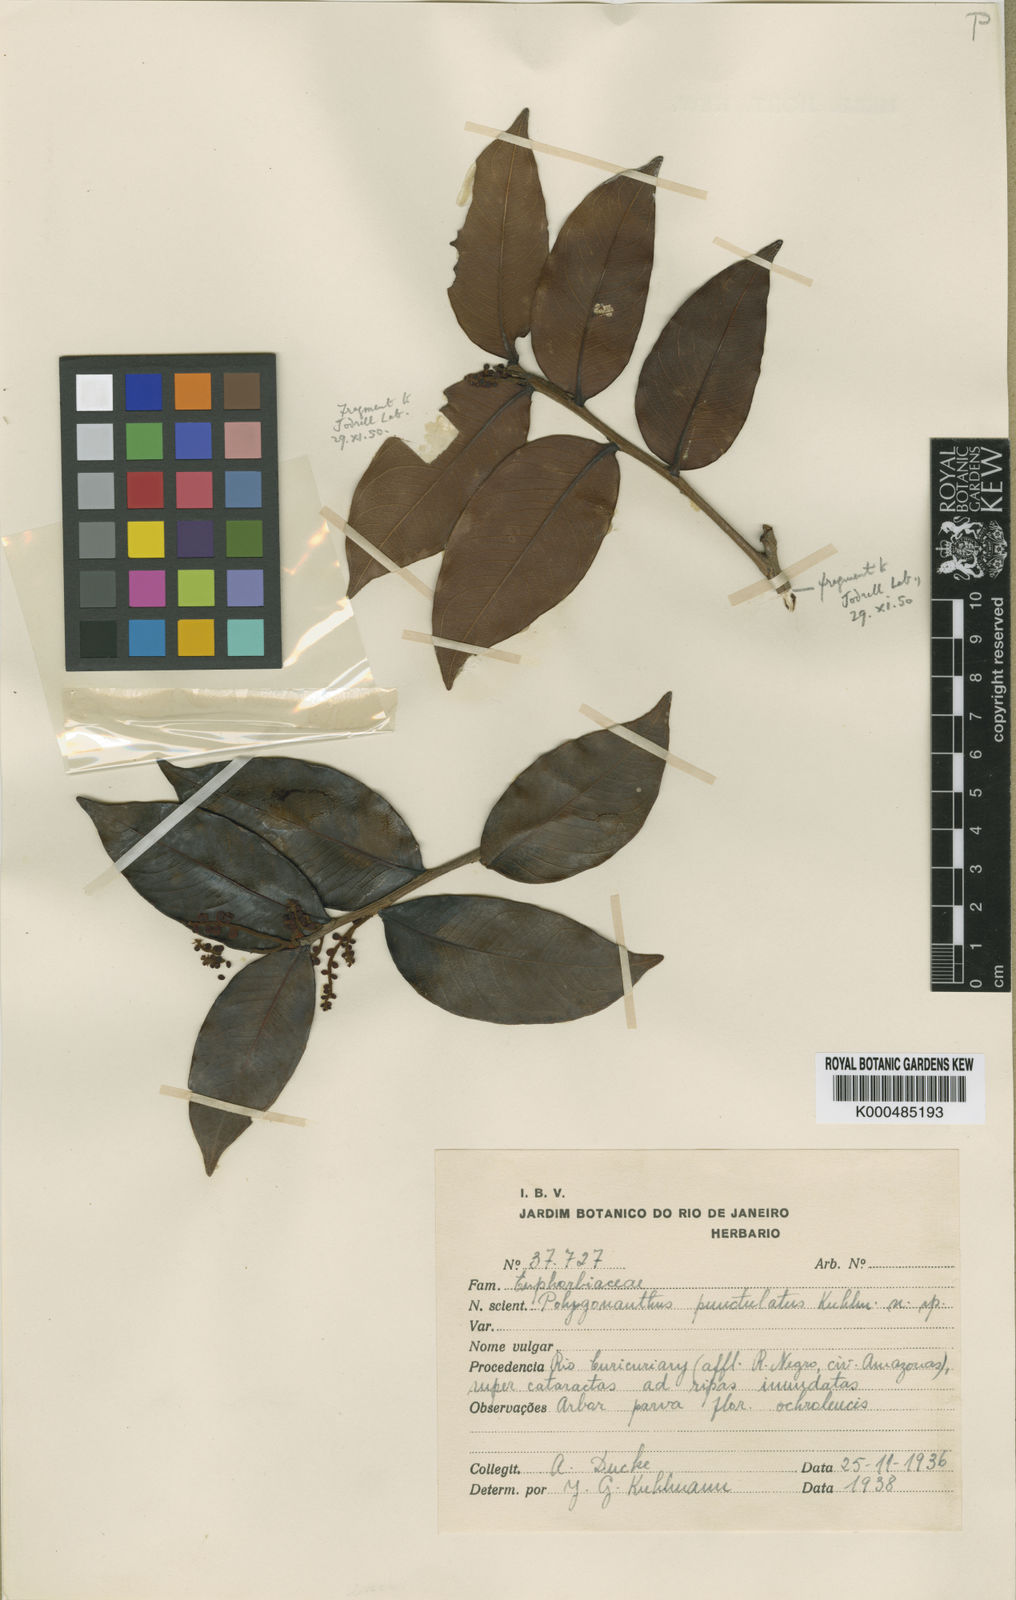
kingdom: Plantae
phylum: Tracheophyta
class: Magnoliopsida
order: Cucurbitales
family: Anisophylleaceae
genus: Polygonanthus
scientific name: Polygonanthus punctulatus
